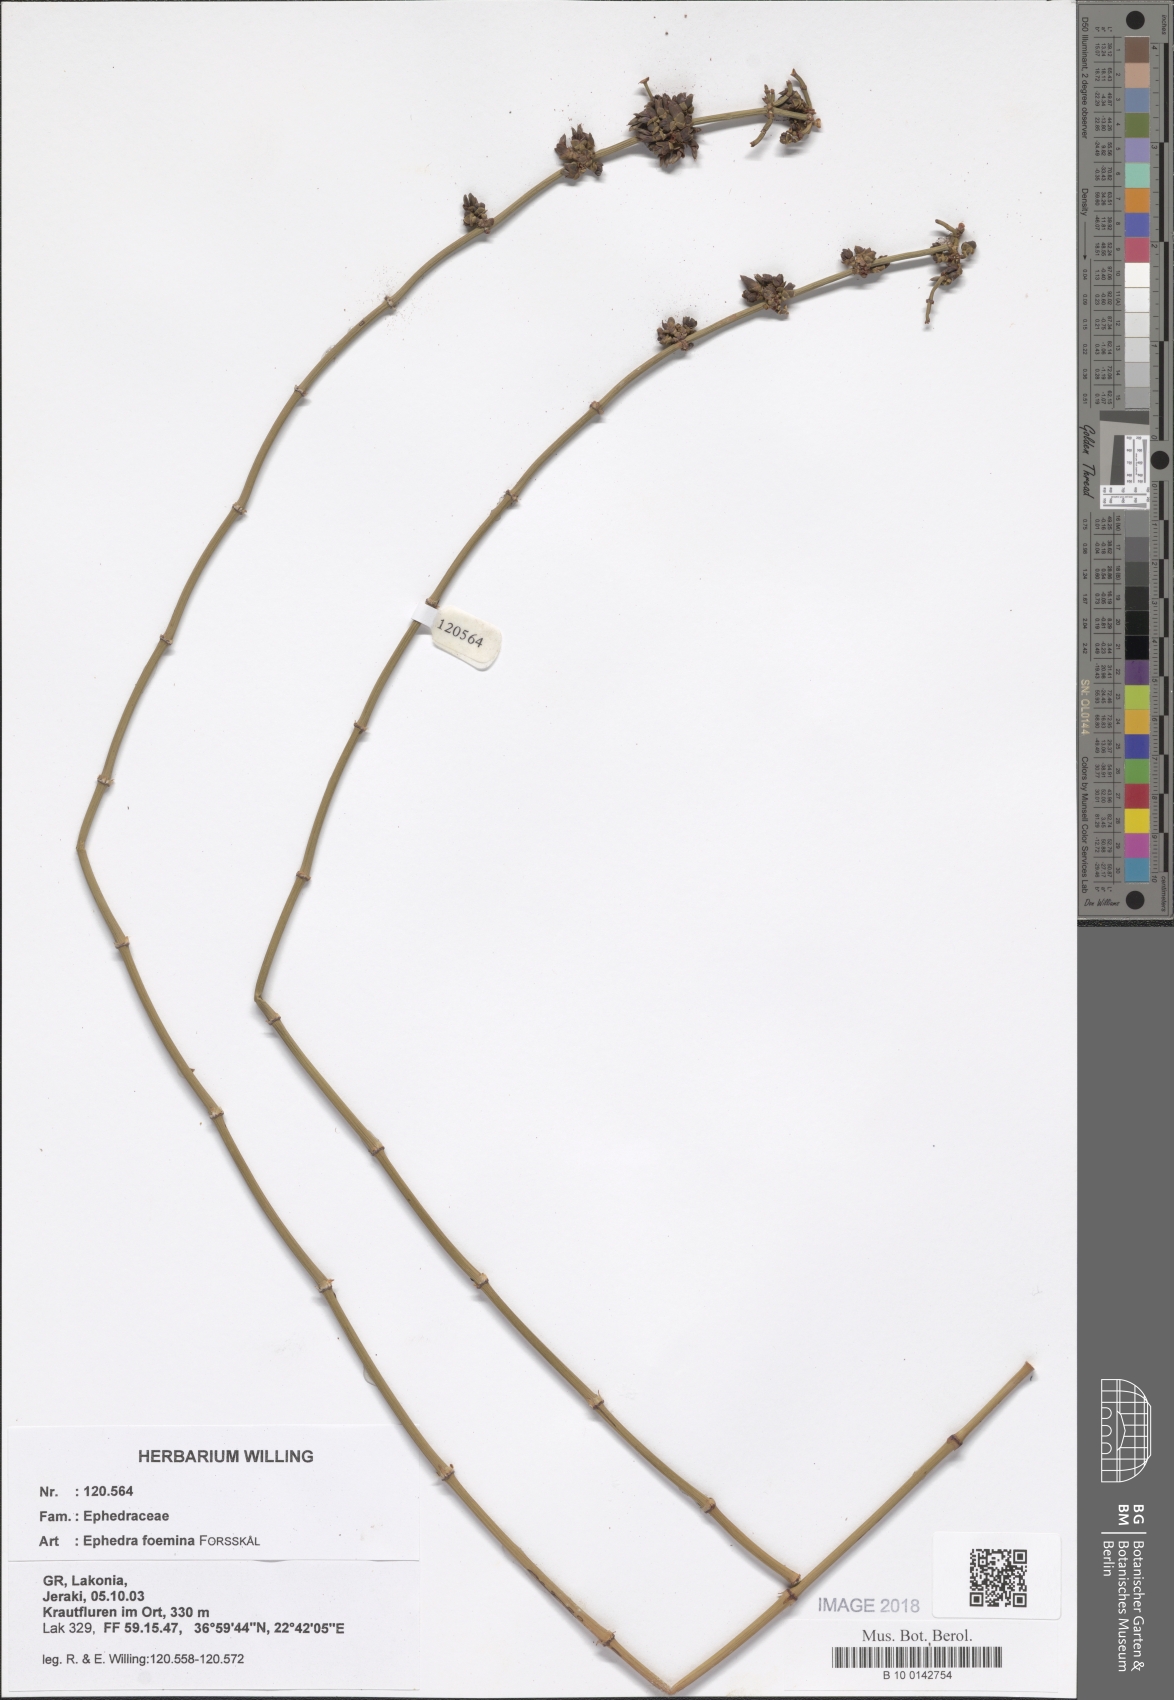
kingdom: Plantae
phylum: Tracheophyta
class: Gnetopsida
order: Ephedrales
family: Ephedraceae
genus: Ephedra
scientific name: Ephedra foeminea
